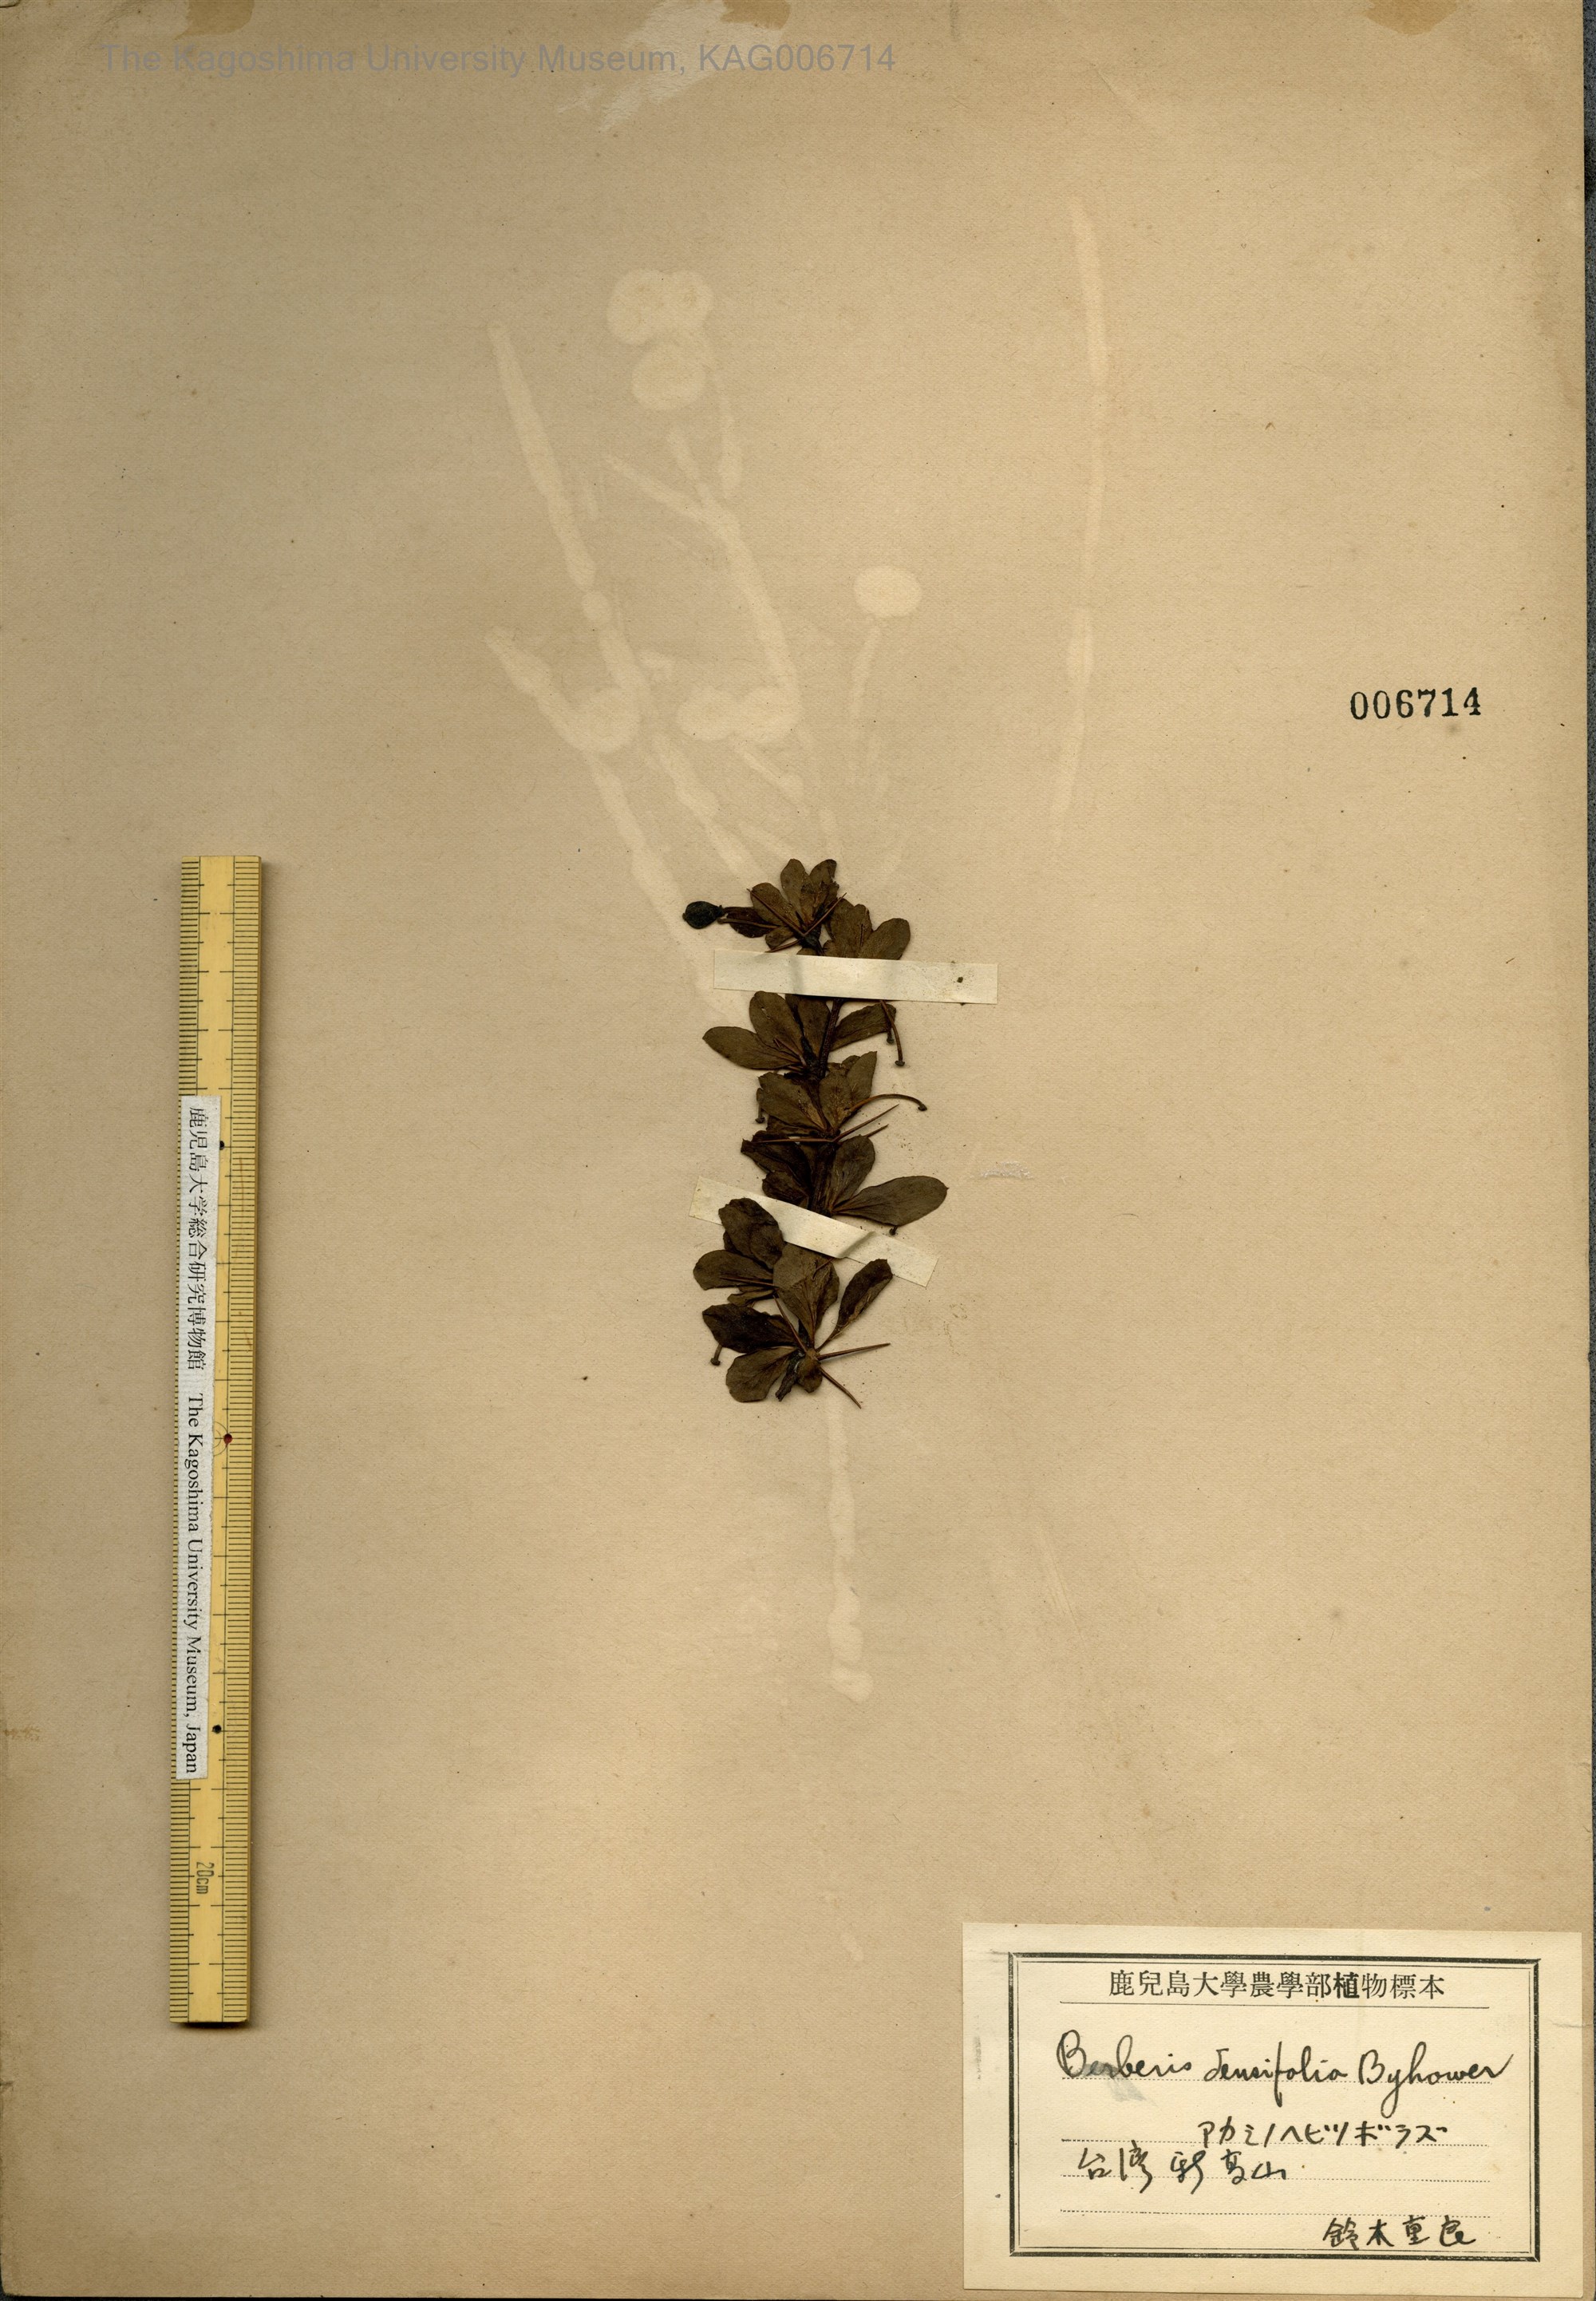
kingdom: Plantae
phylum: Tracheophyta
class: Magnoliopsida
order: Ranunculales
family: Berberidaceae
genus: Berberis
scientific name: Berberis nantoensis
